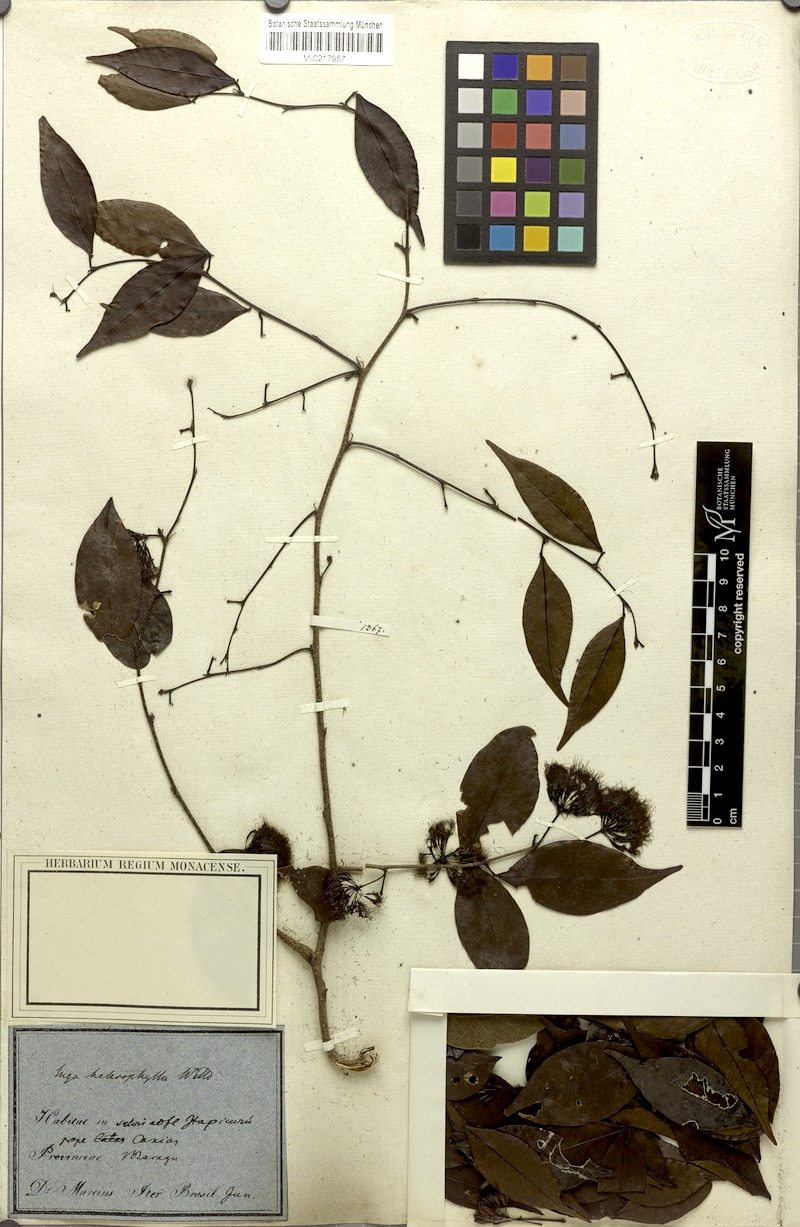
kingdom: Plantae
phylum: Tracheophyta
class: Magnoliopsida
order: Fabales
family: Fabaceae
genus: Inga
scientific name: Inga heterophylla
